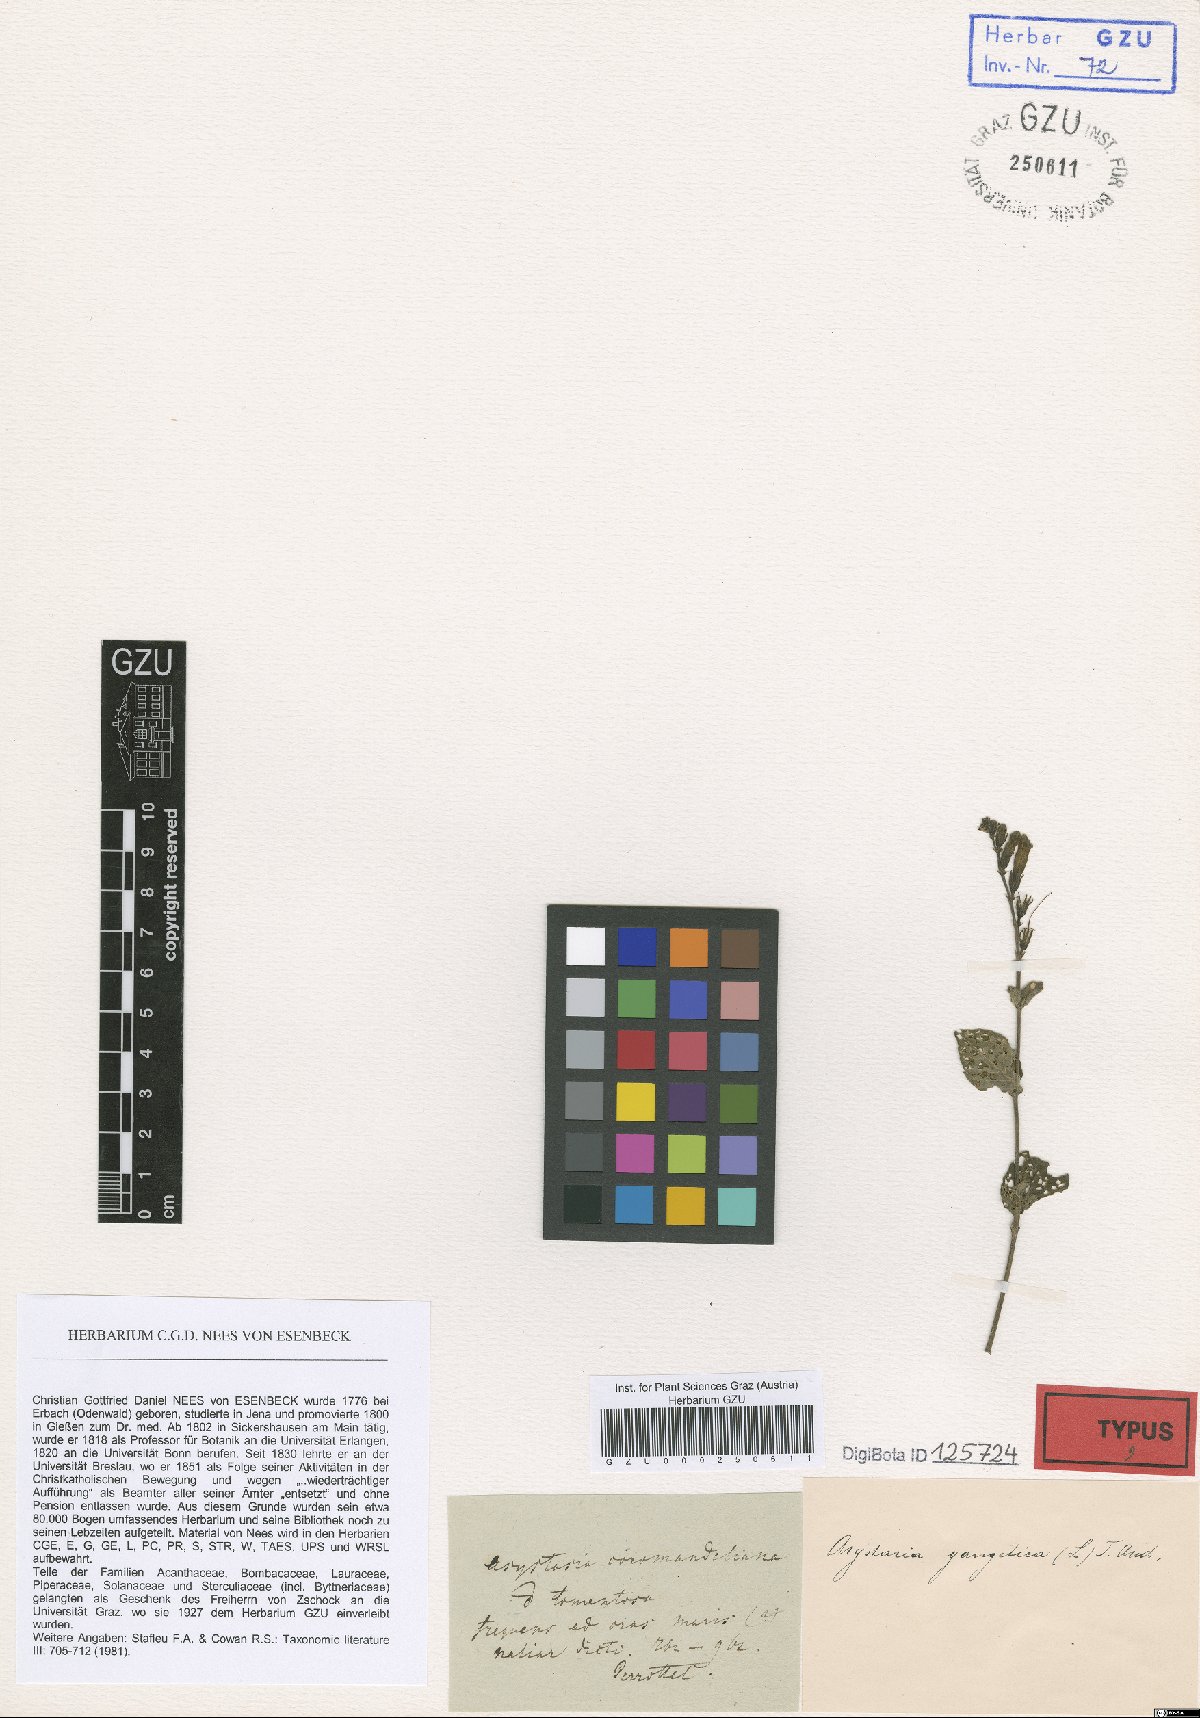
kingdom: Plantae
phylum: Tracheophyta
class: Magnoliopsida
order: Lamiales
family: Acanthaceae
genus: Asystasia
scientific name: Asystasia
